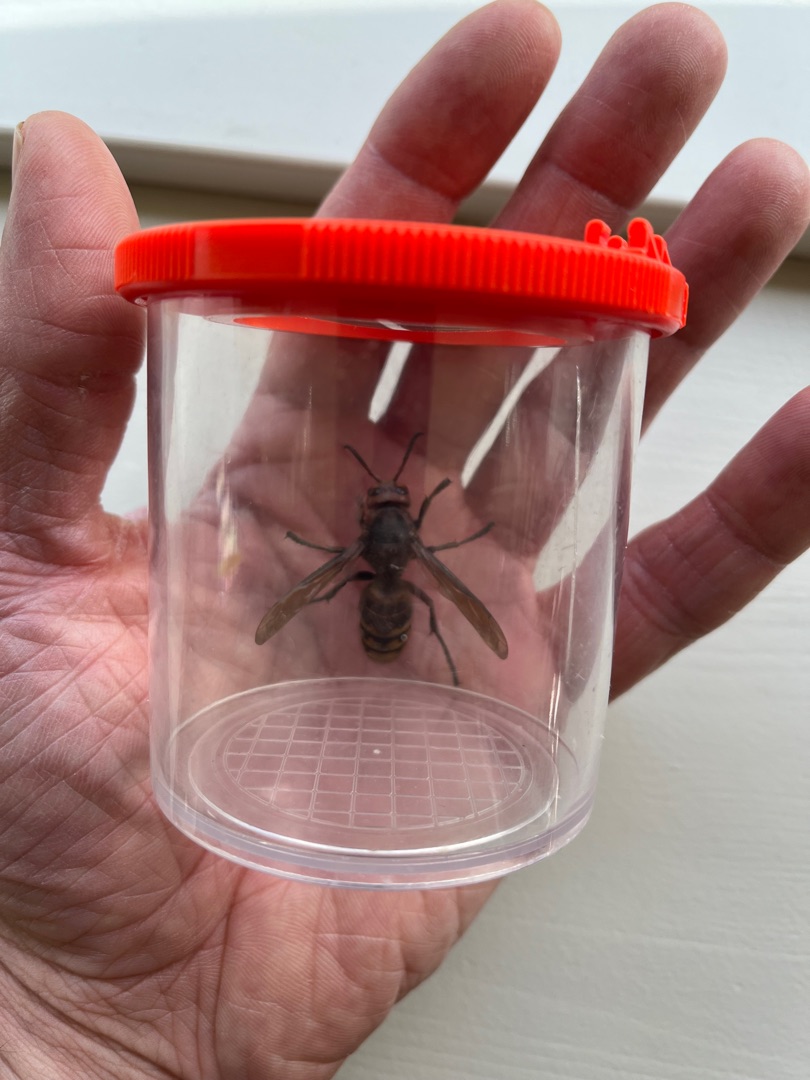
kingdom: Animalia
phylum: Arthropoda
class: Insecta
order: Hymenoptera
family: Vespidae
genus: Vespa
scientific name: Vespa crabro
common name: Stor gedehams
